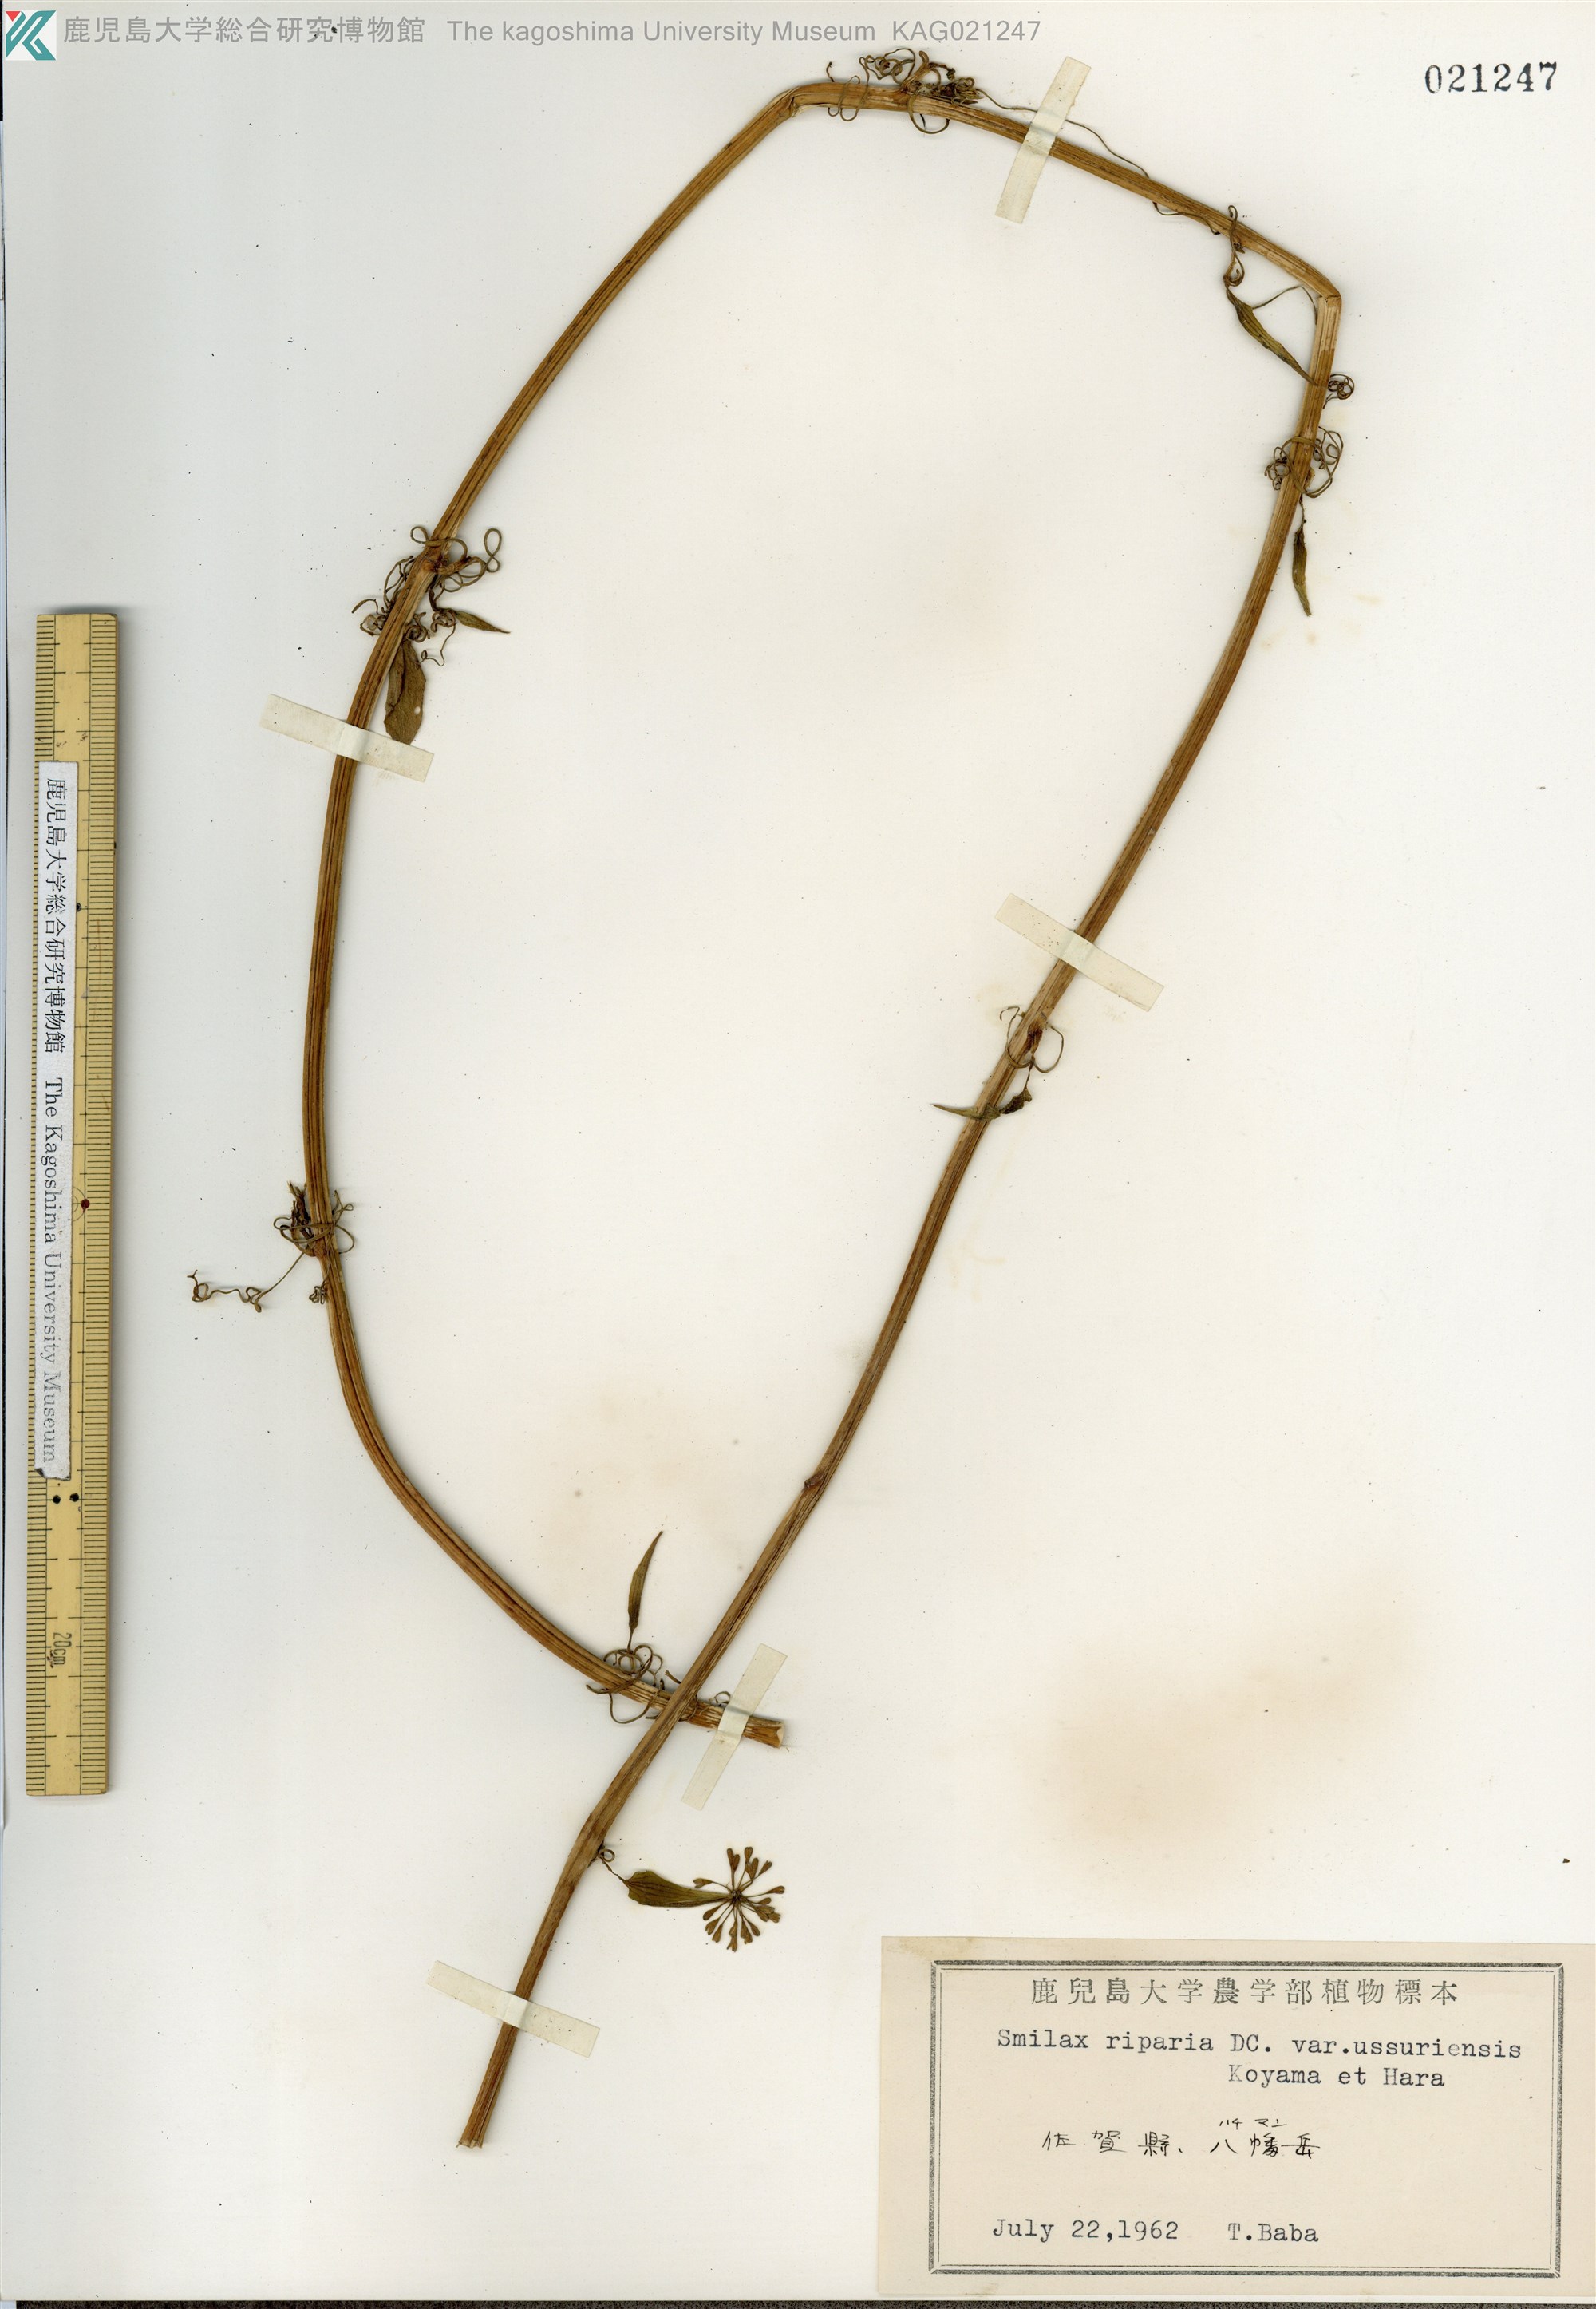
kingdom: Plantae
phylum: Tracheophyta
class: Liliopsida
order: Liliales
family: Smilacaceae
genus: Smilax
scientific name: Smilax riparia
